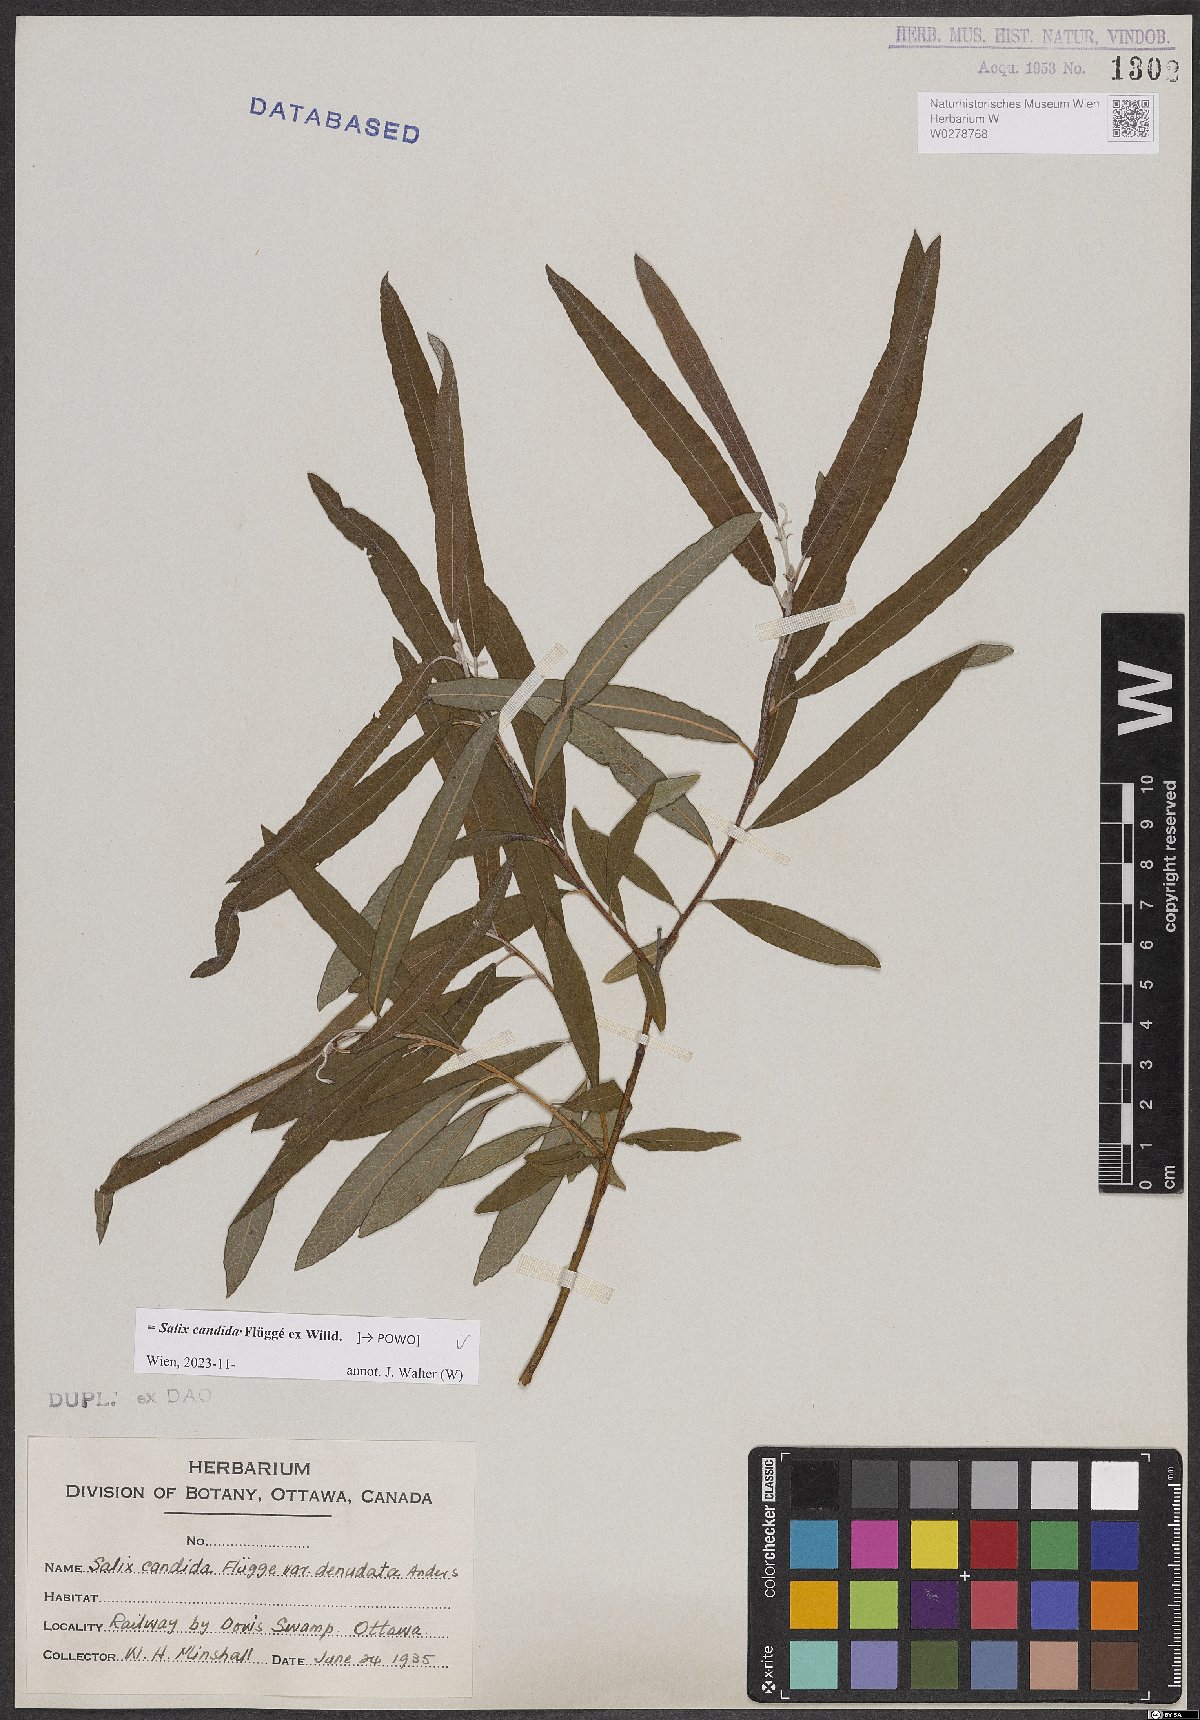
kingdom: Plantae
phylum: Tracheophyta
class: Magnoliopsida
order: Malpighiales
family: Salicaceae
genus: Salix
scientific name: Salix candida
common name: Hoary willow
